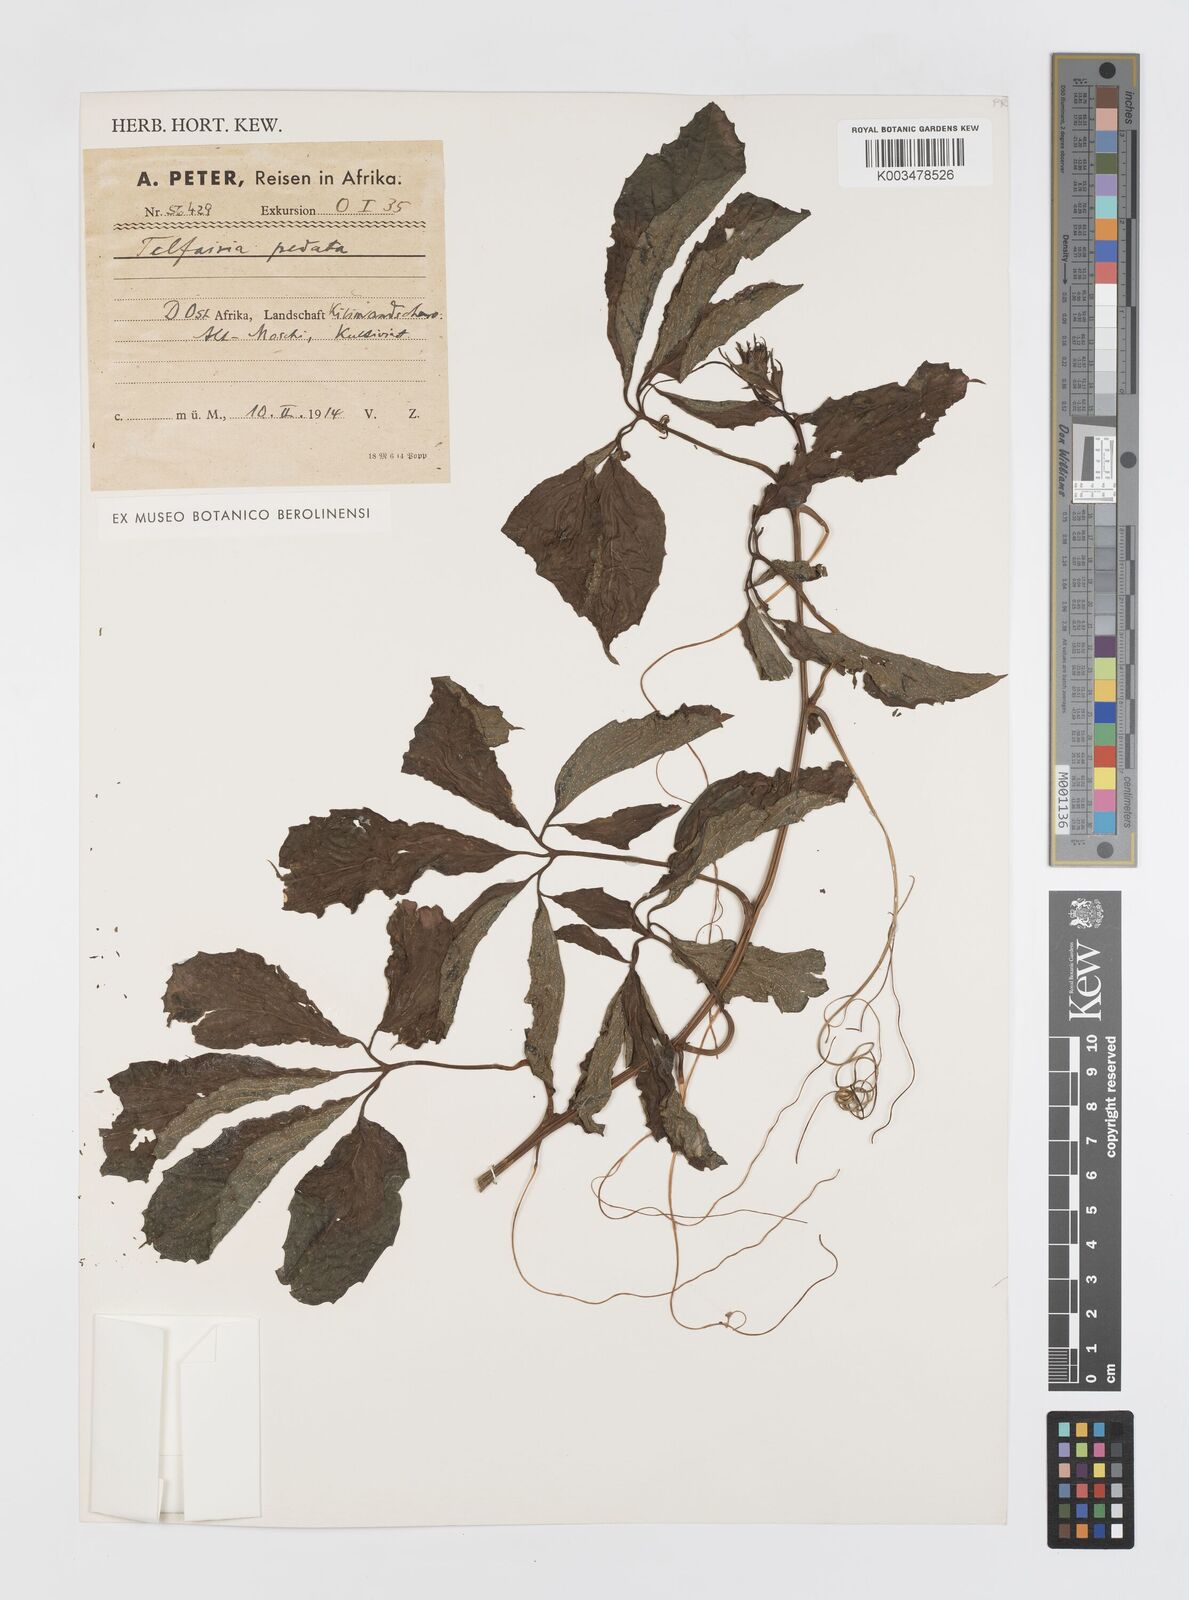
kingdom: Plantae
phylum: Tracheophyta
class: Magnoliopsida
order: Cucurbitales
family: Cucurbitaceae
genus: Telfairia
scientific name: Telfairia pedata
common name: Zanzibar oilvine
